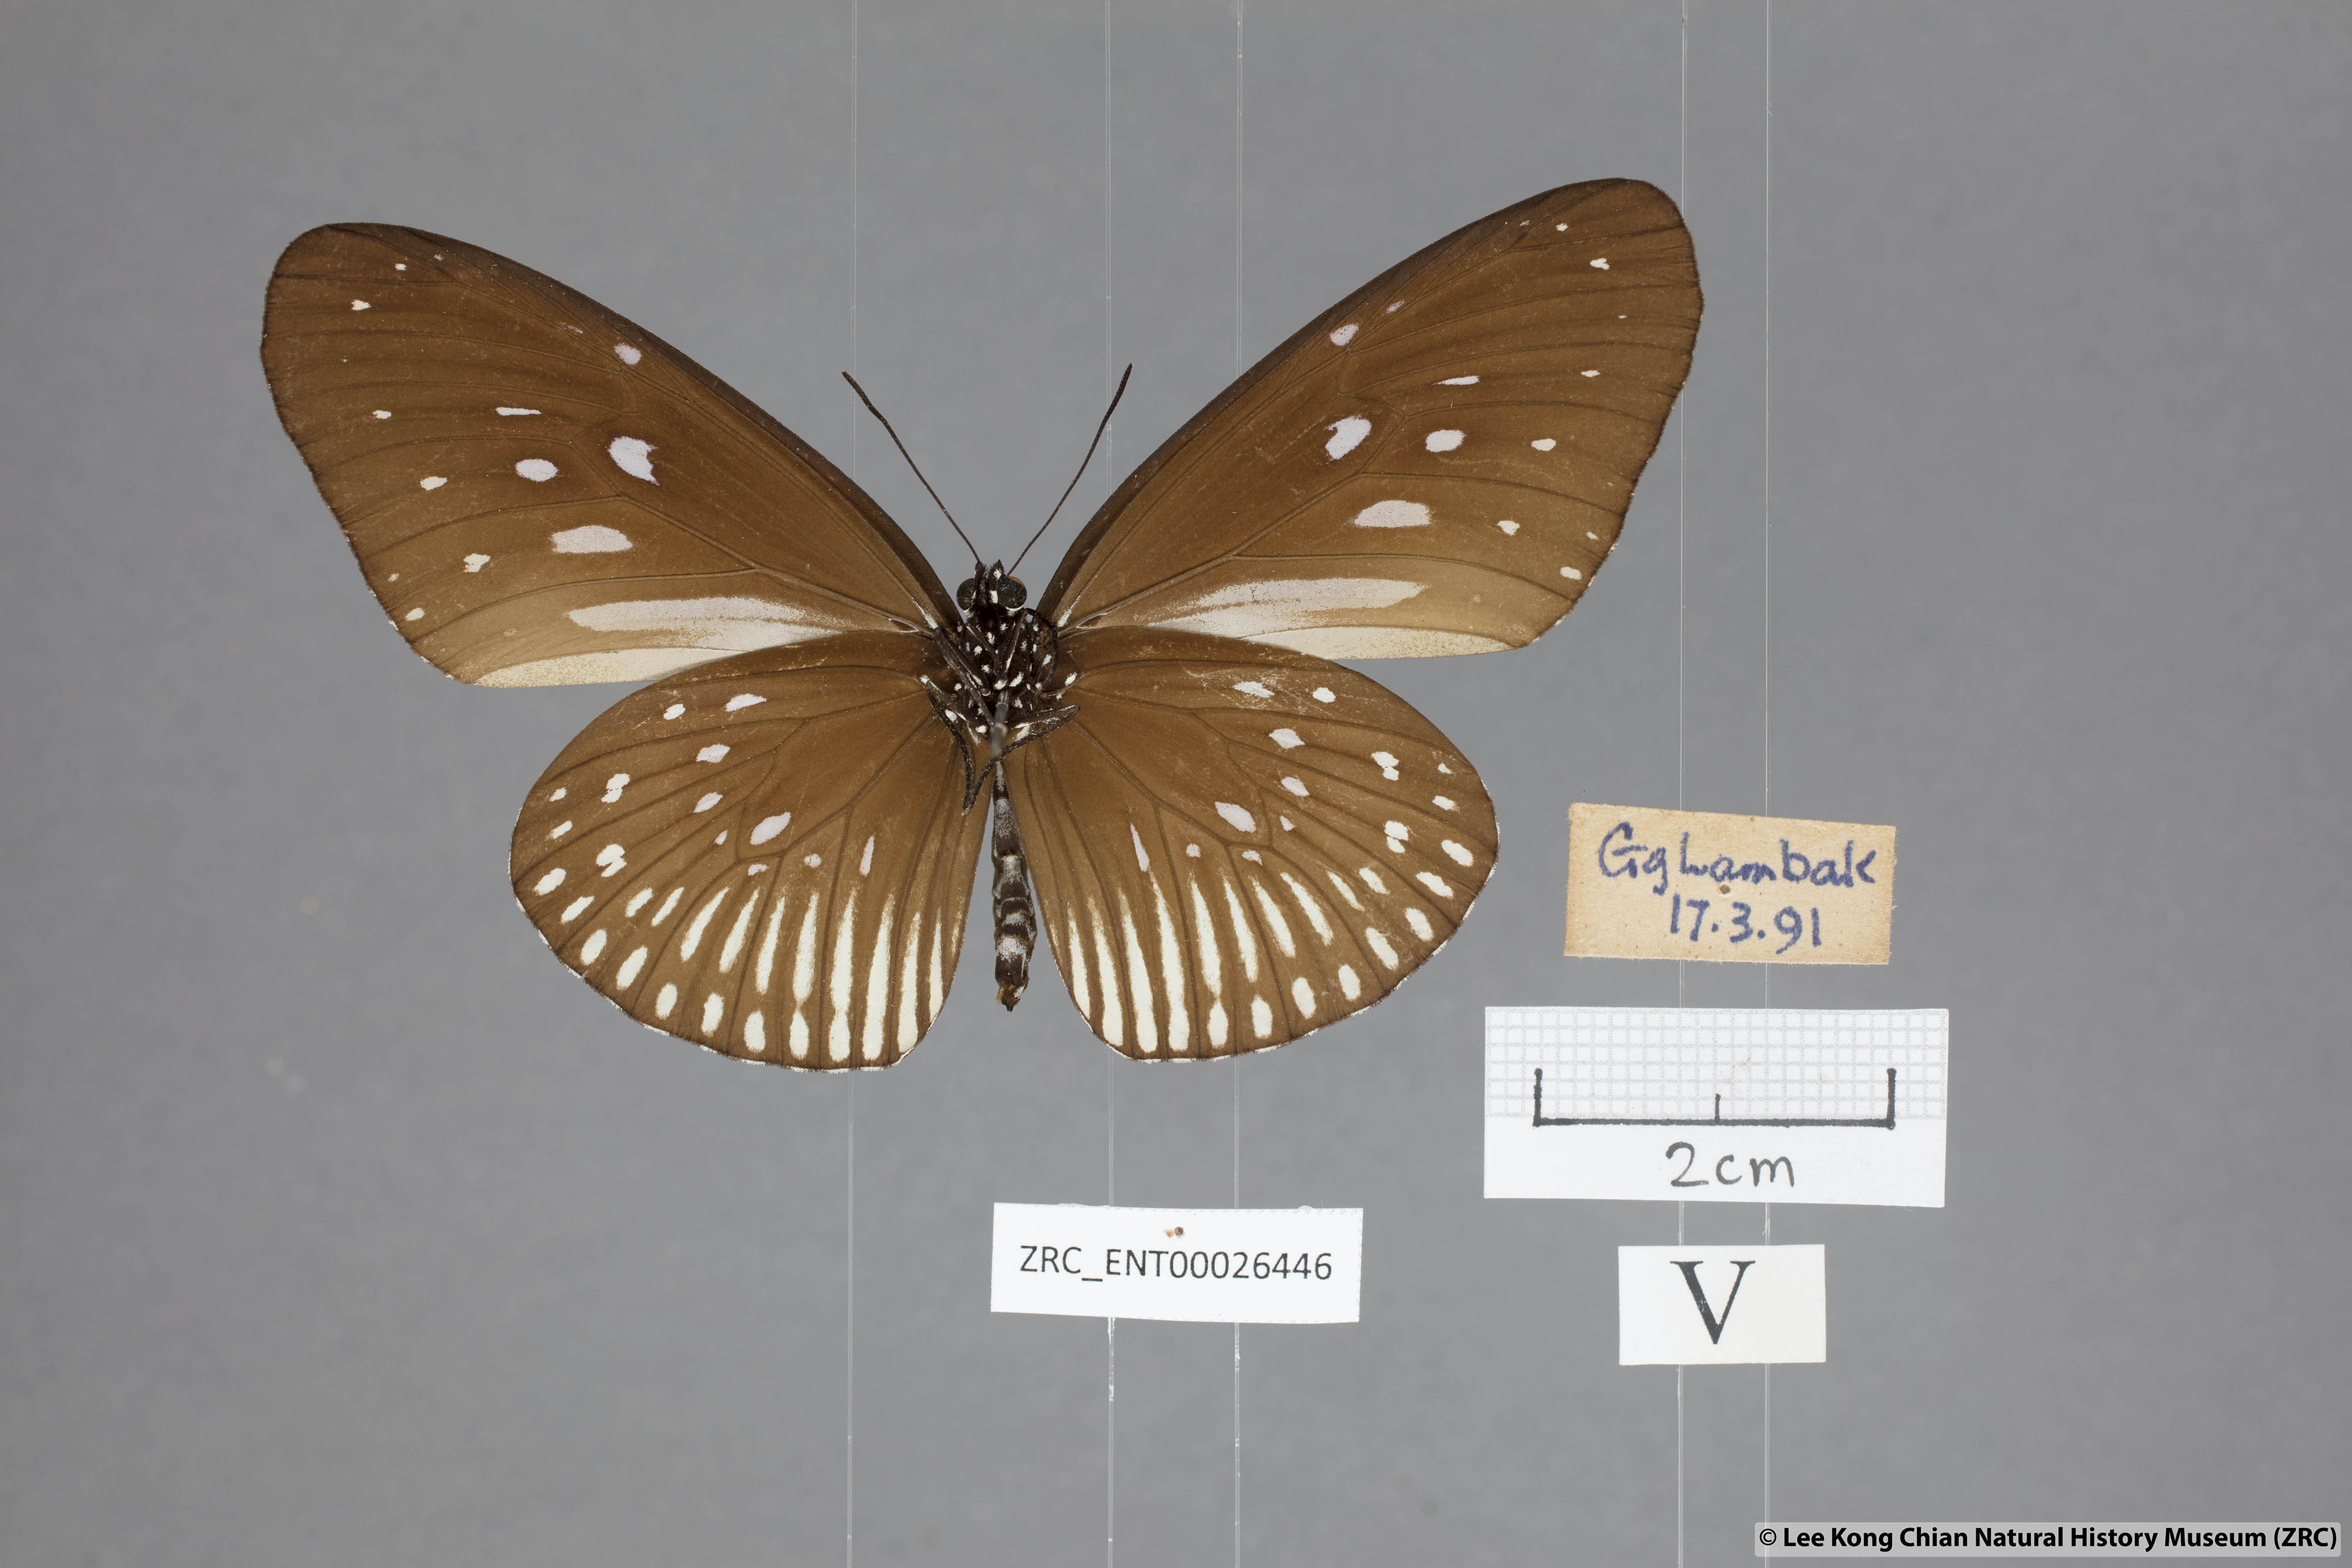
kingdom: Animalia
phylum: Arthropoda
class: Insecta
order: Lepidoptera
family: Nymphalidae
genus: Euploea
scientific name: Euploea eyndhovii
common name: Striped black crow butterfly
